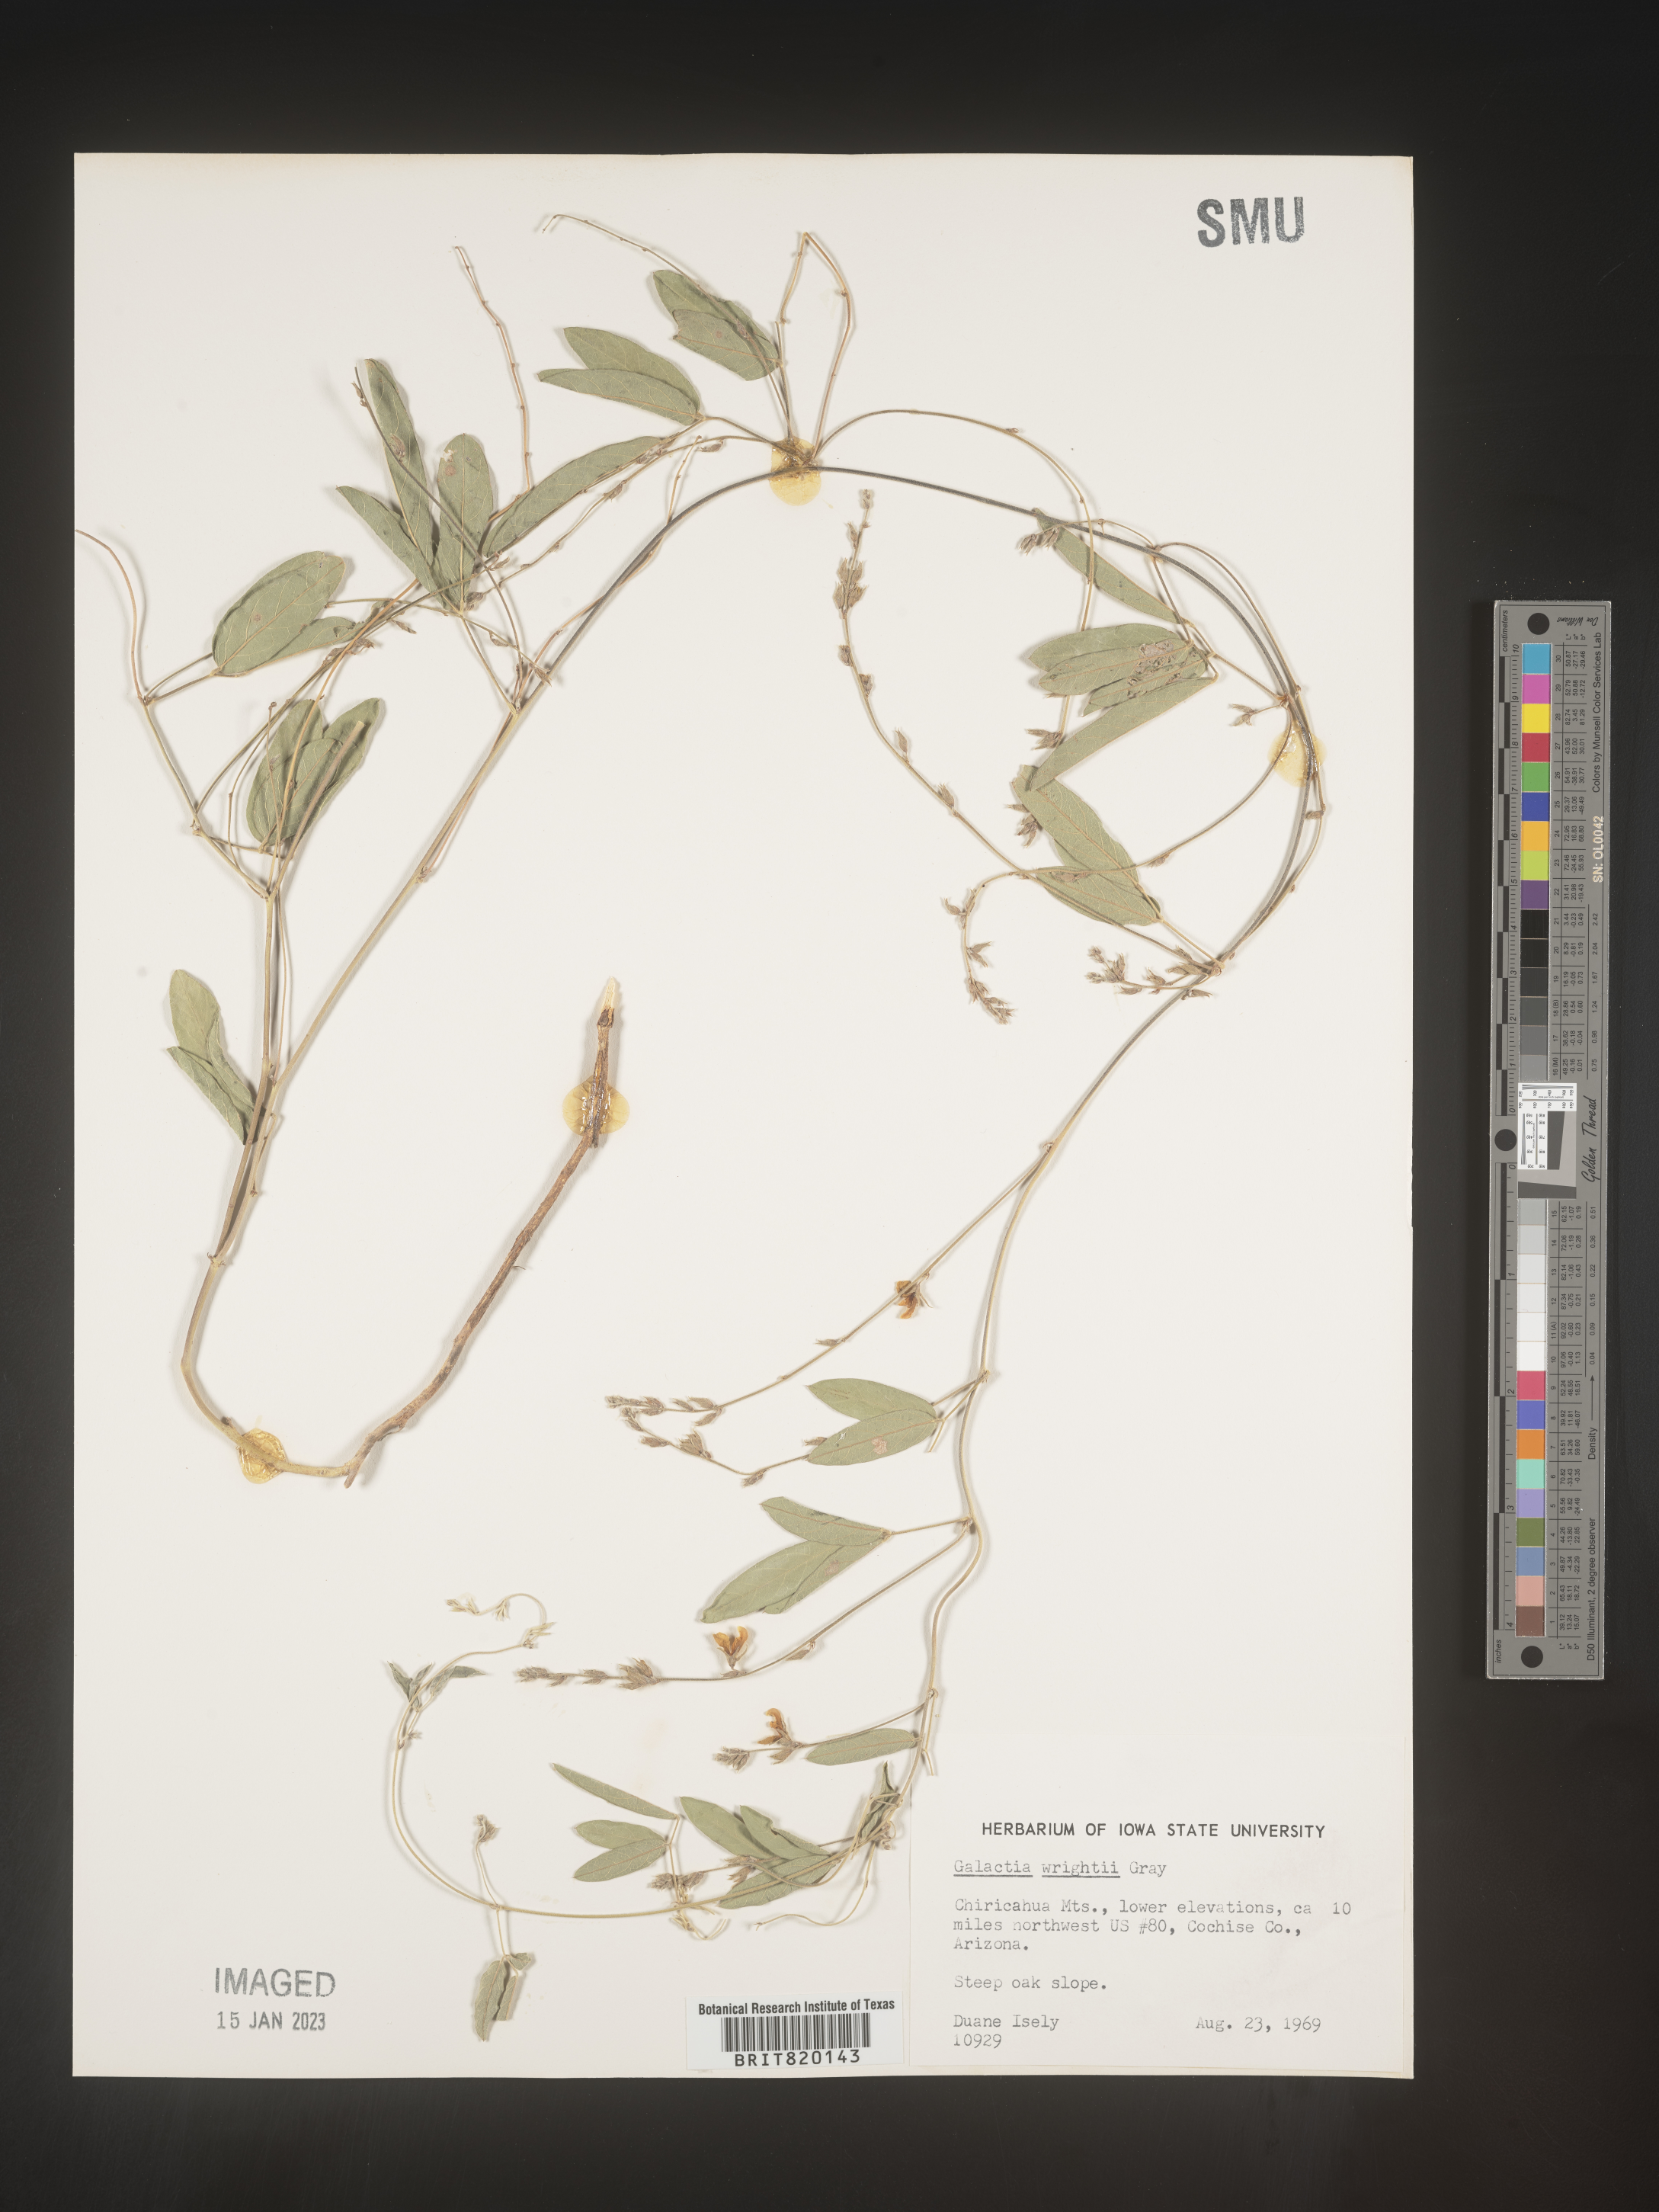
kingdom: Plantae
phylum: Tracheophyta
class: Magnoliopsida
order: Fabales
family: Fabaceae
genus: Galactia
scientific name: Galactia wrightii
